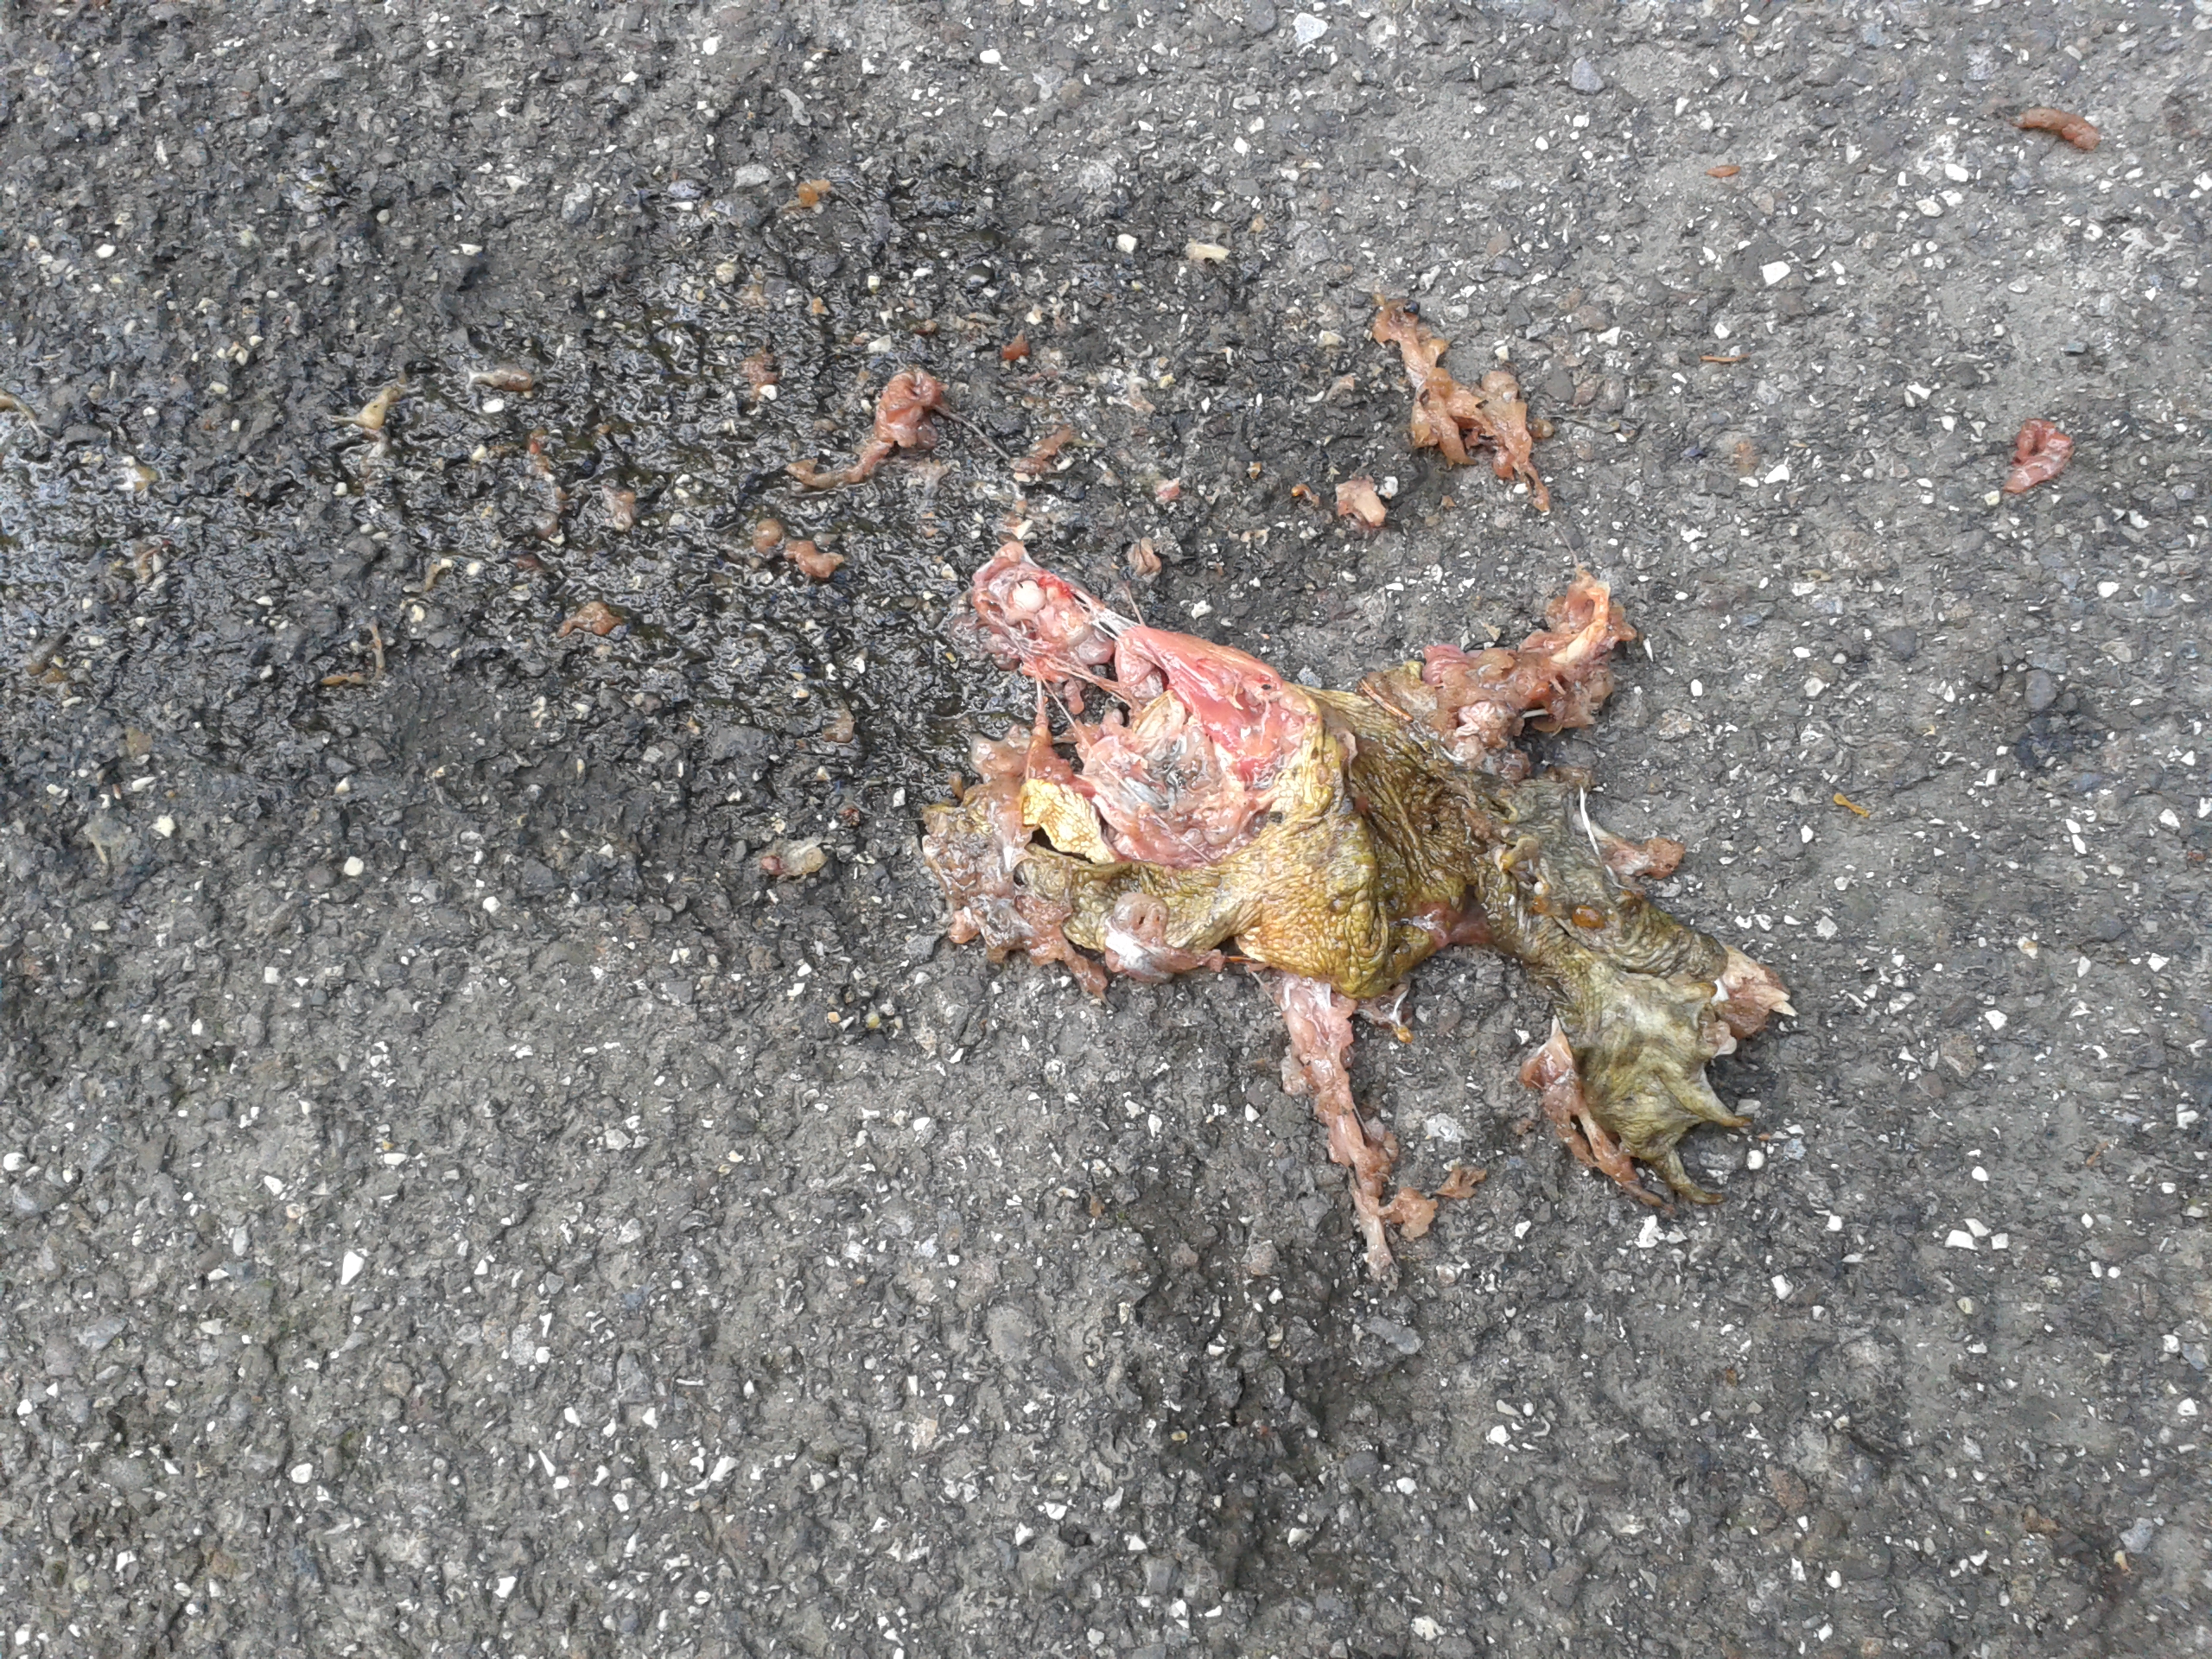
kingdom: Animalia
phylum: Chordata
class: Amphibia
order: Anura
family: Bufonidae
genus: Bufo
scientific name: Bufo bufo
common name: Common toad
